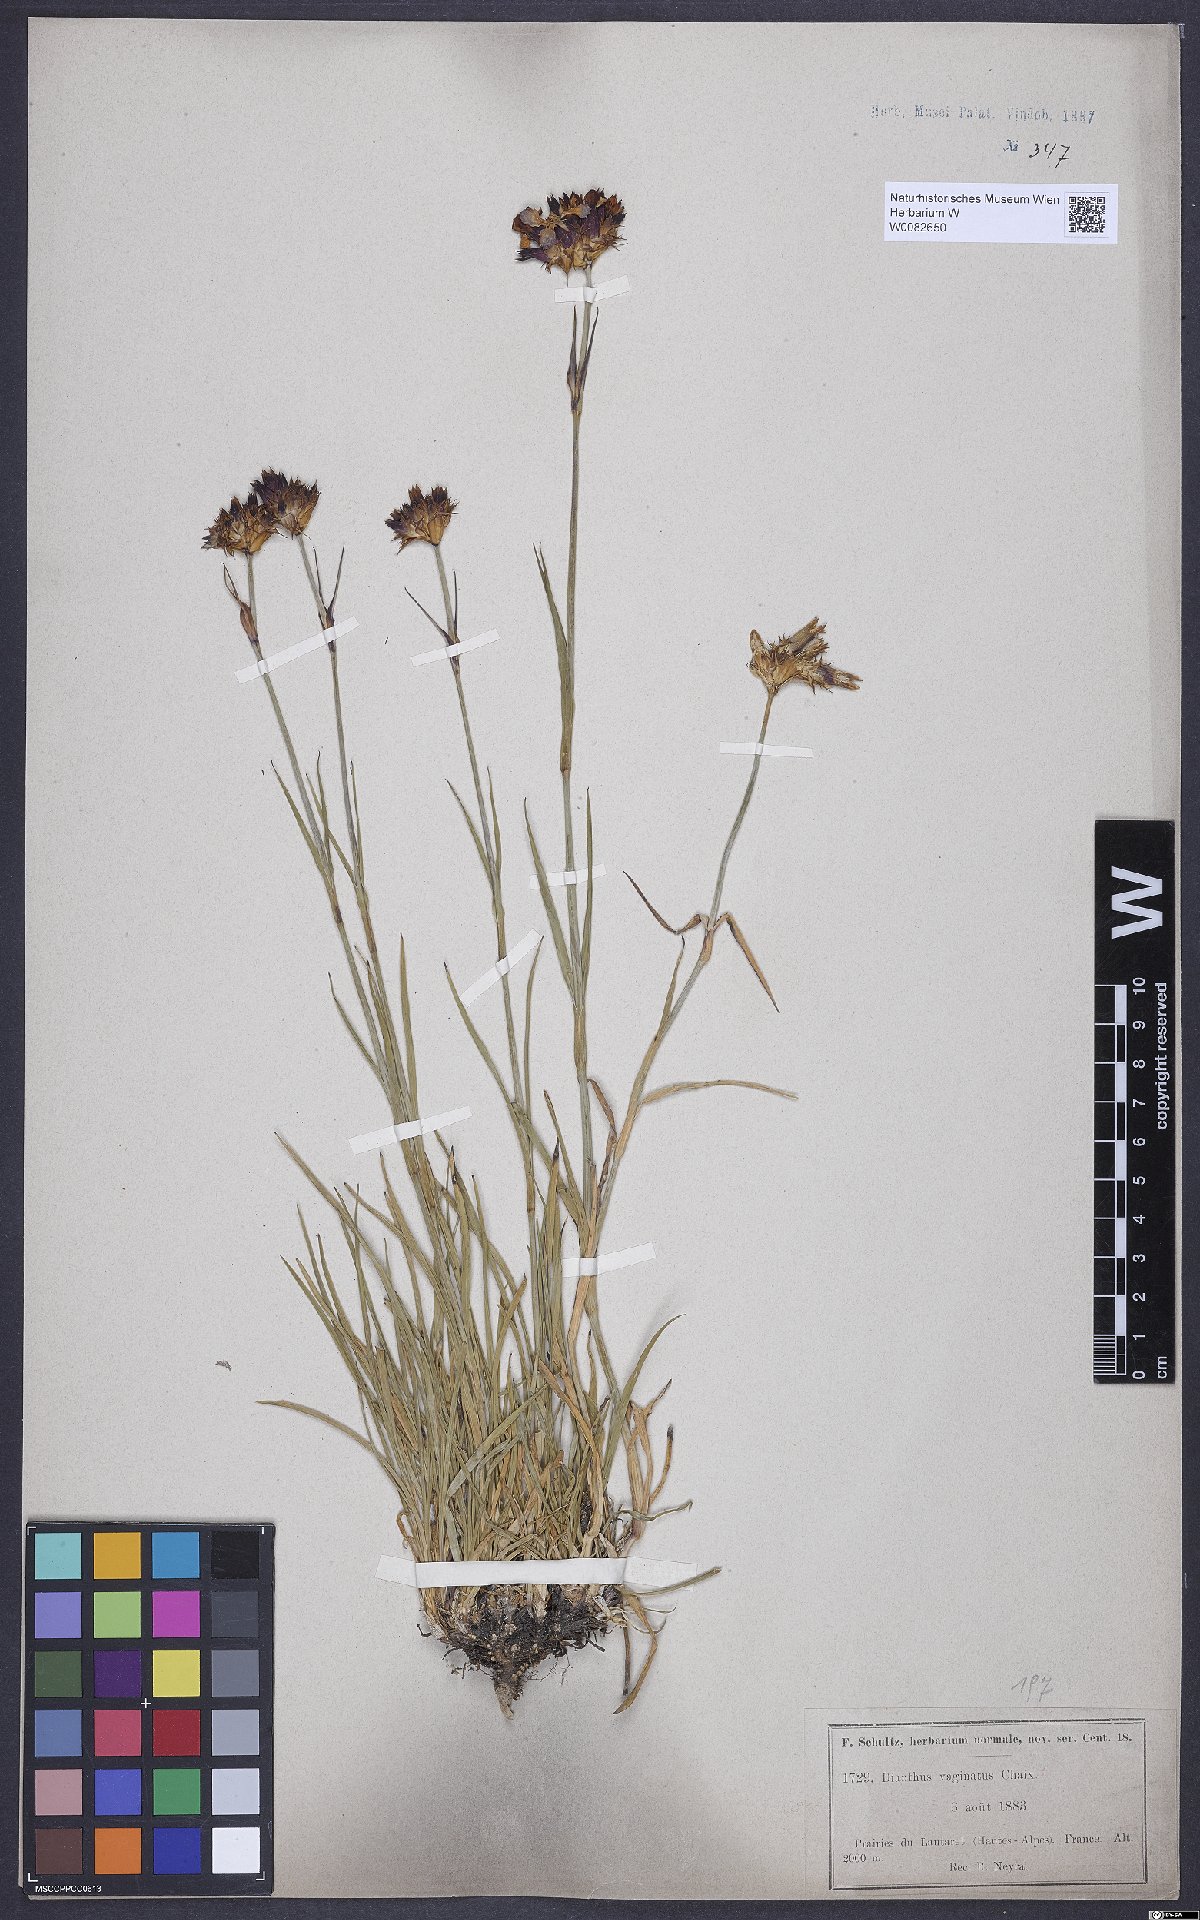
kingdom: Plantae
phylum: Tracheophyta
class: Magnoliopsida
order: Caryophyllales
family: Caryophyllaceae
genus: Dianthus
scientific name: Dianthus carthusianorum
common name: Carthusian pink
